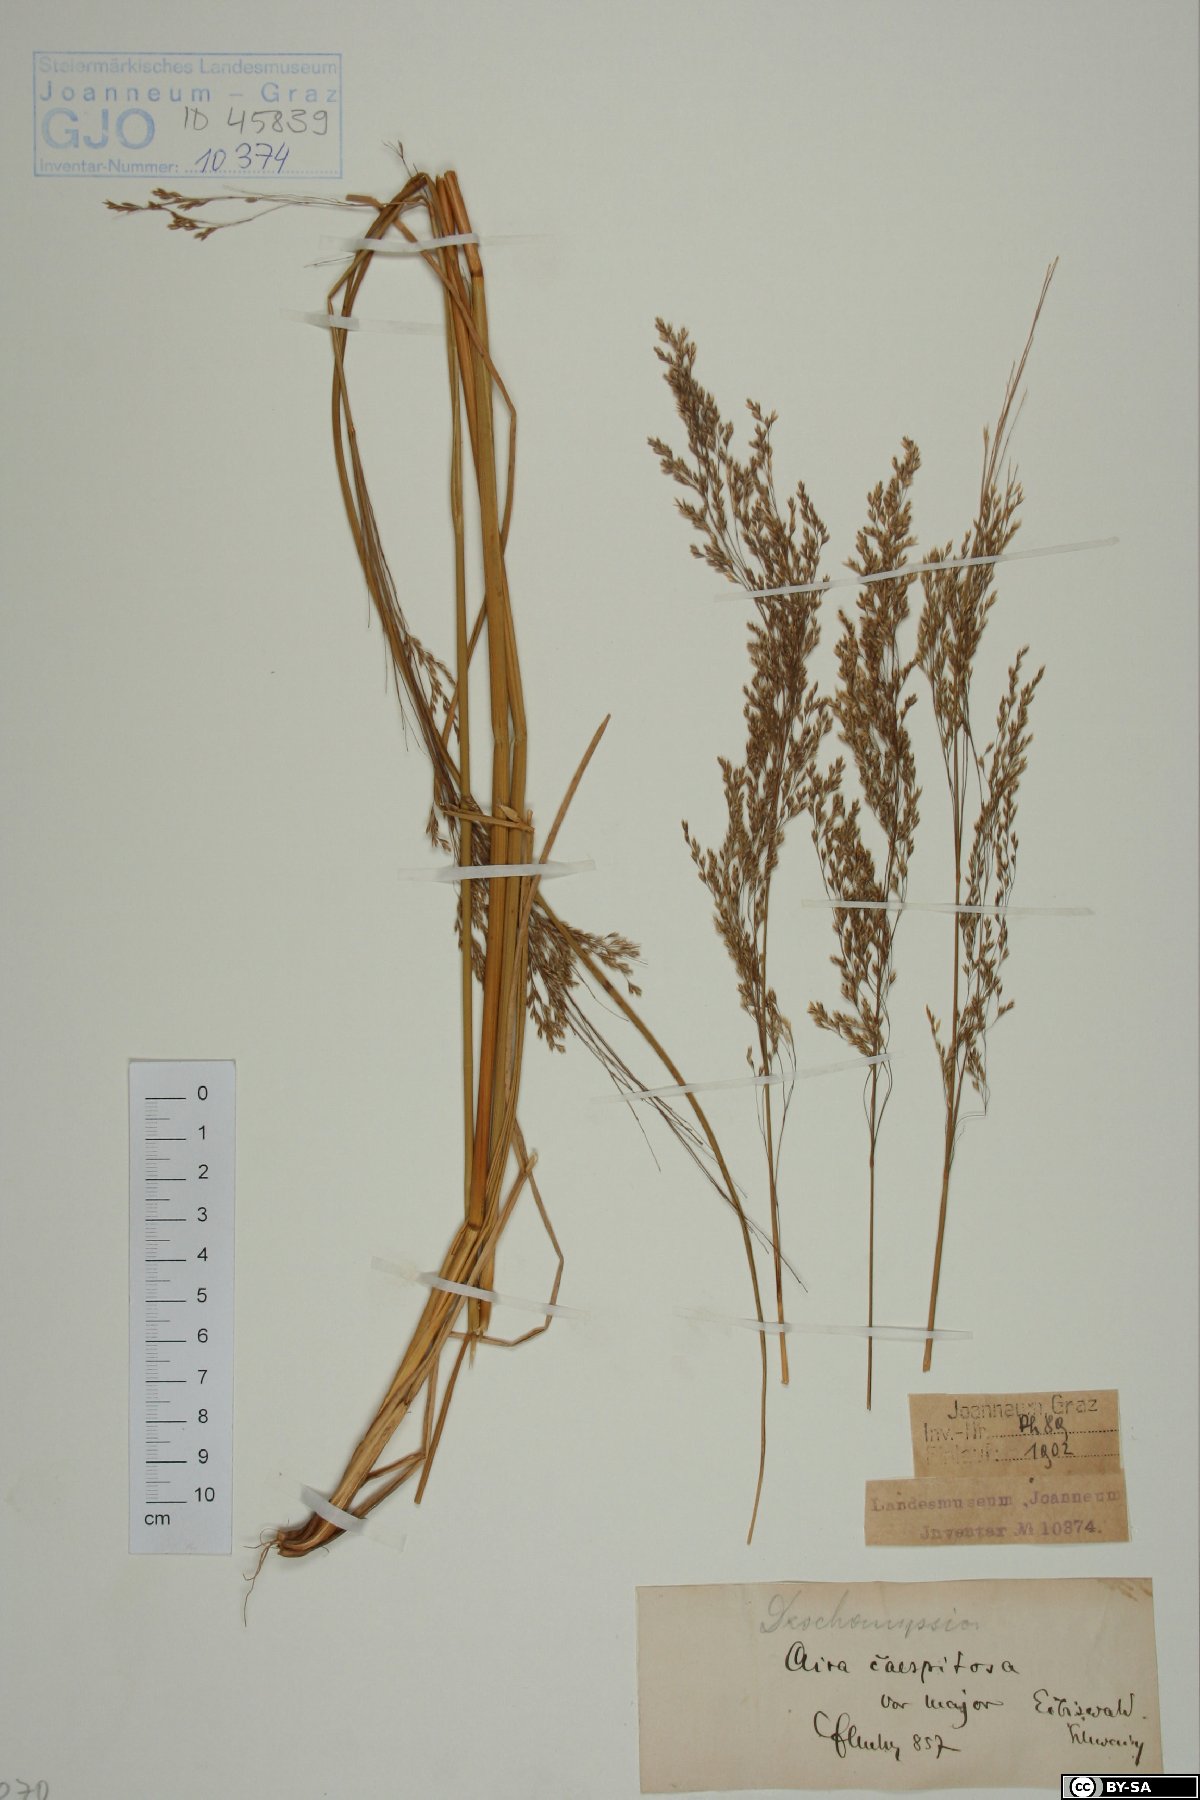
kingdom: Plantae
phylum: Tracheophyta
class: Liliopsida
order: Poales
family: Poaceae
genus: Deschampsia
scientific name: Deschampsia cespitosa
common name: Tufted hair-grass
